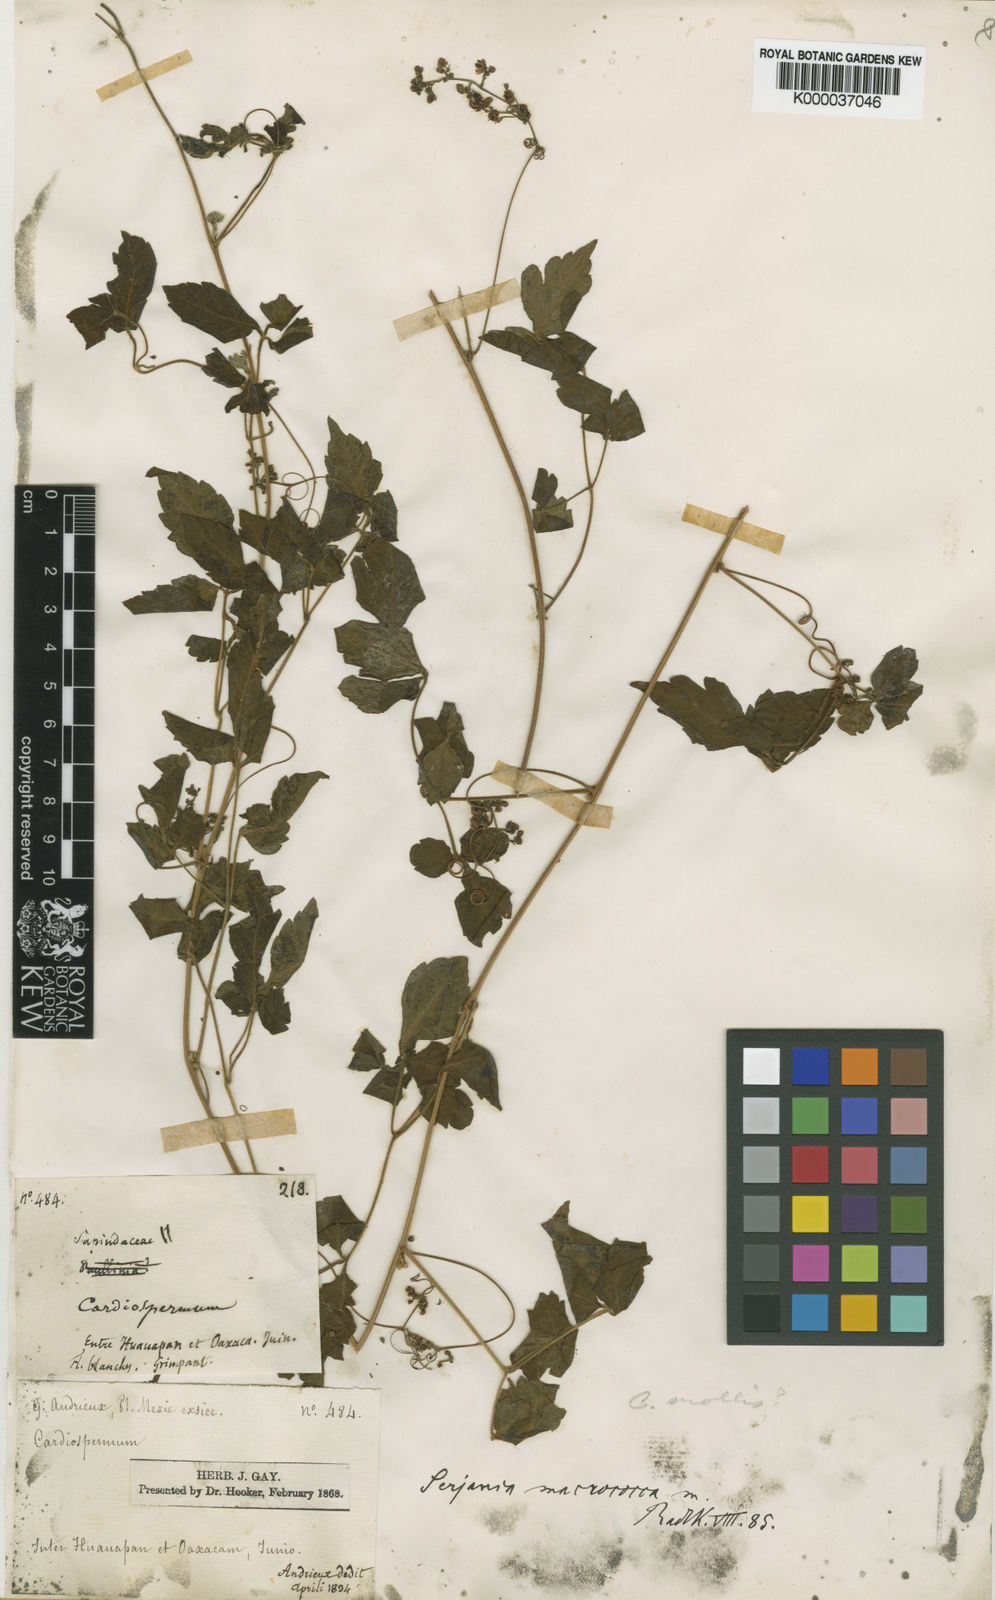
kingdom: Plantae
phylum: Tracheophyta
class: Magnoliopsida
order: Sapindales
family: Sapindaceae
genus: Serjania
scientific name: Serjania macrococca
